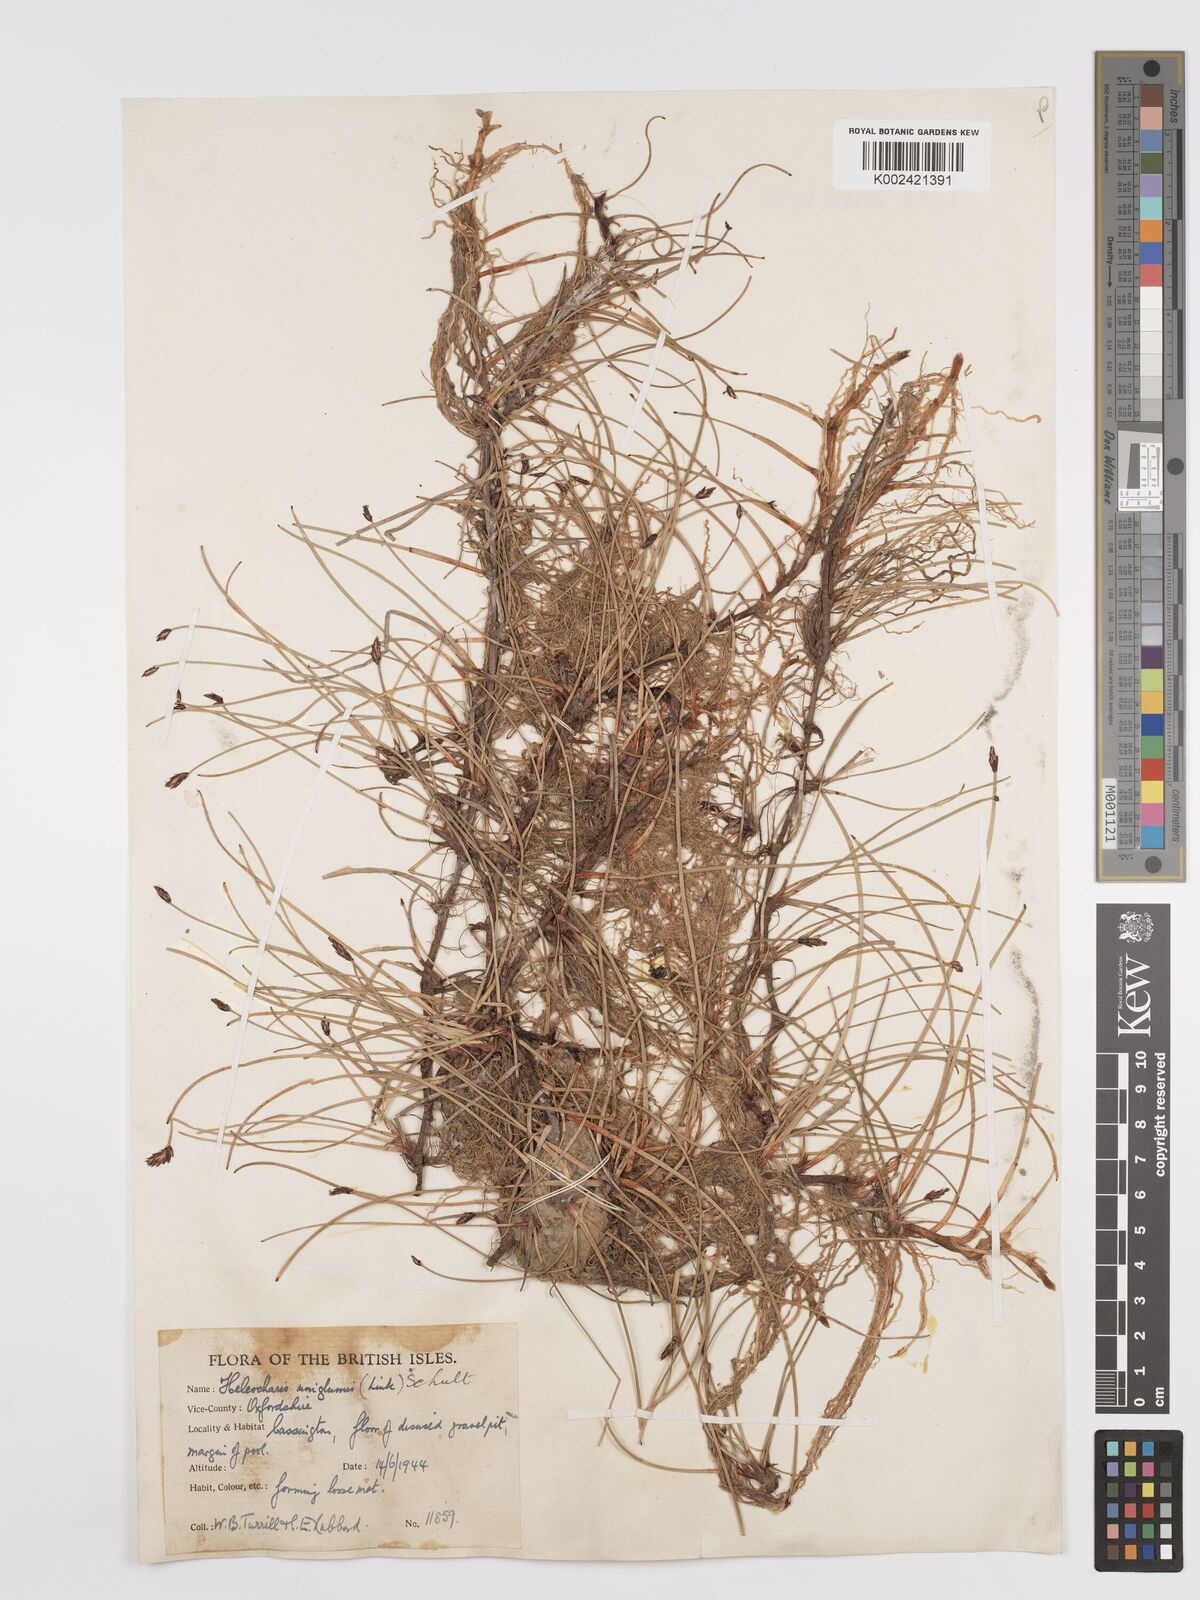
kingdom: Plantae
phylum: Tracheophyta
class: Liliopsida
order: Poales
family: Cyperaceae
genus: Eleocharis
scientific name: Eleocharis uniglumis
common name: Slender spike-rush
